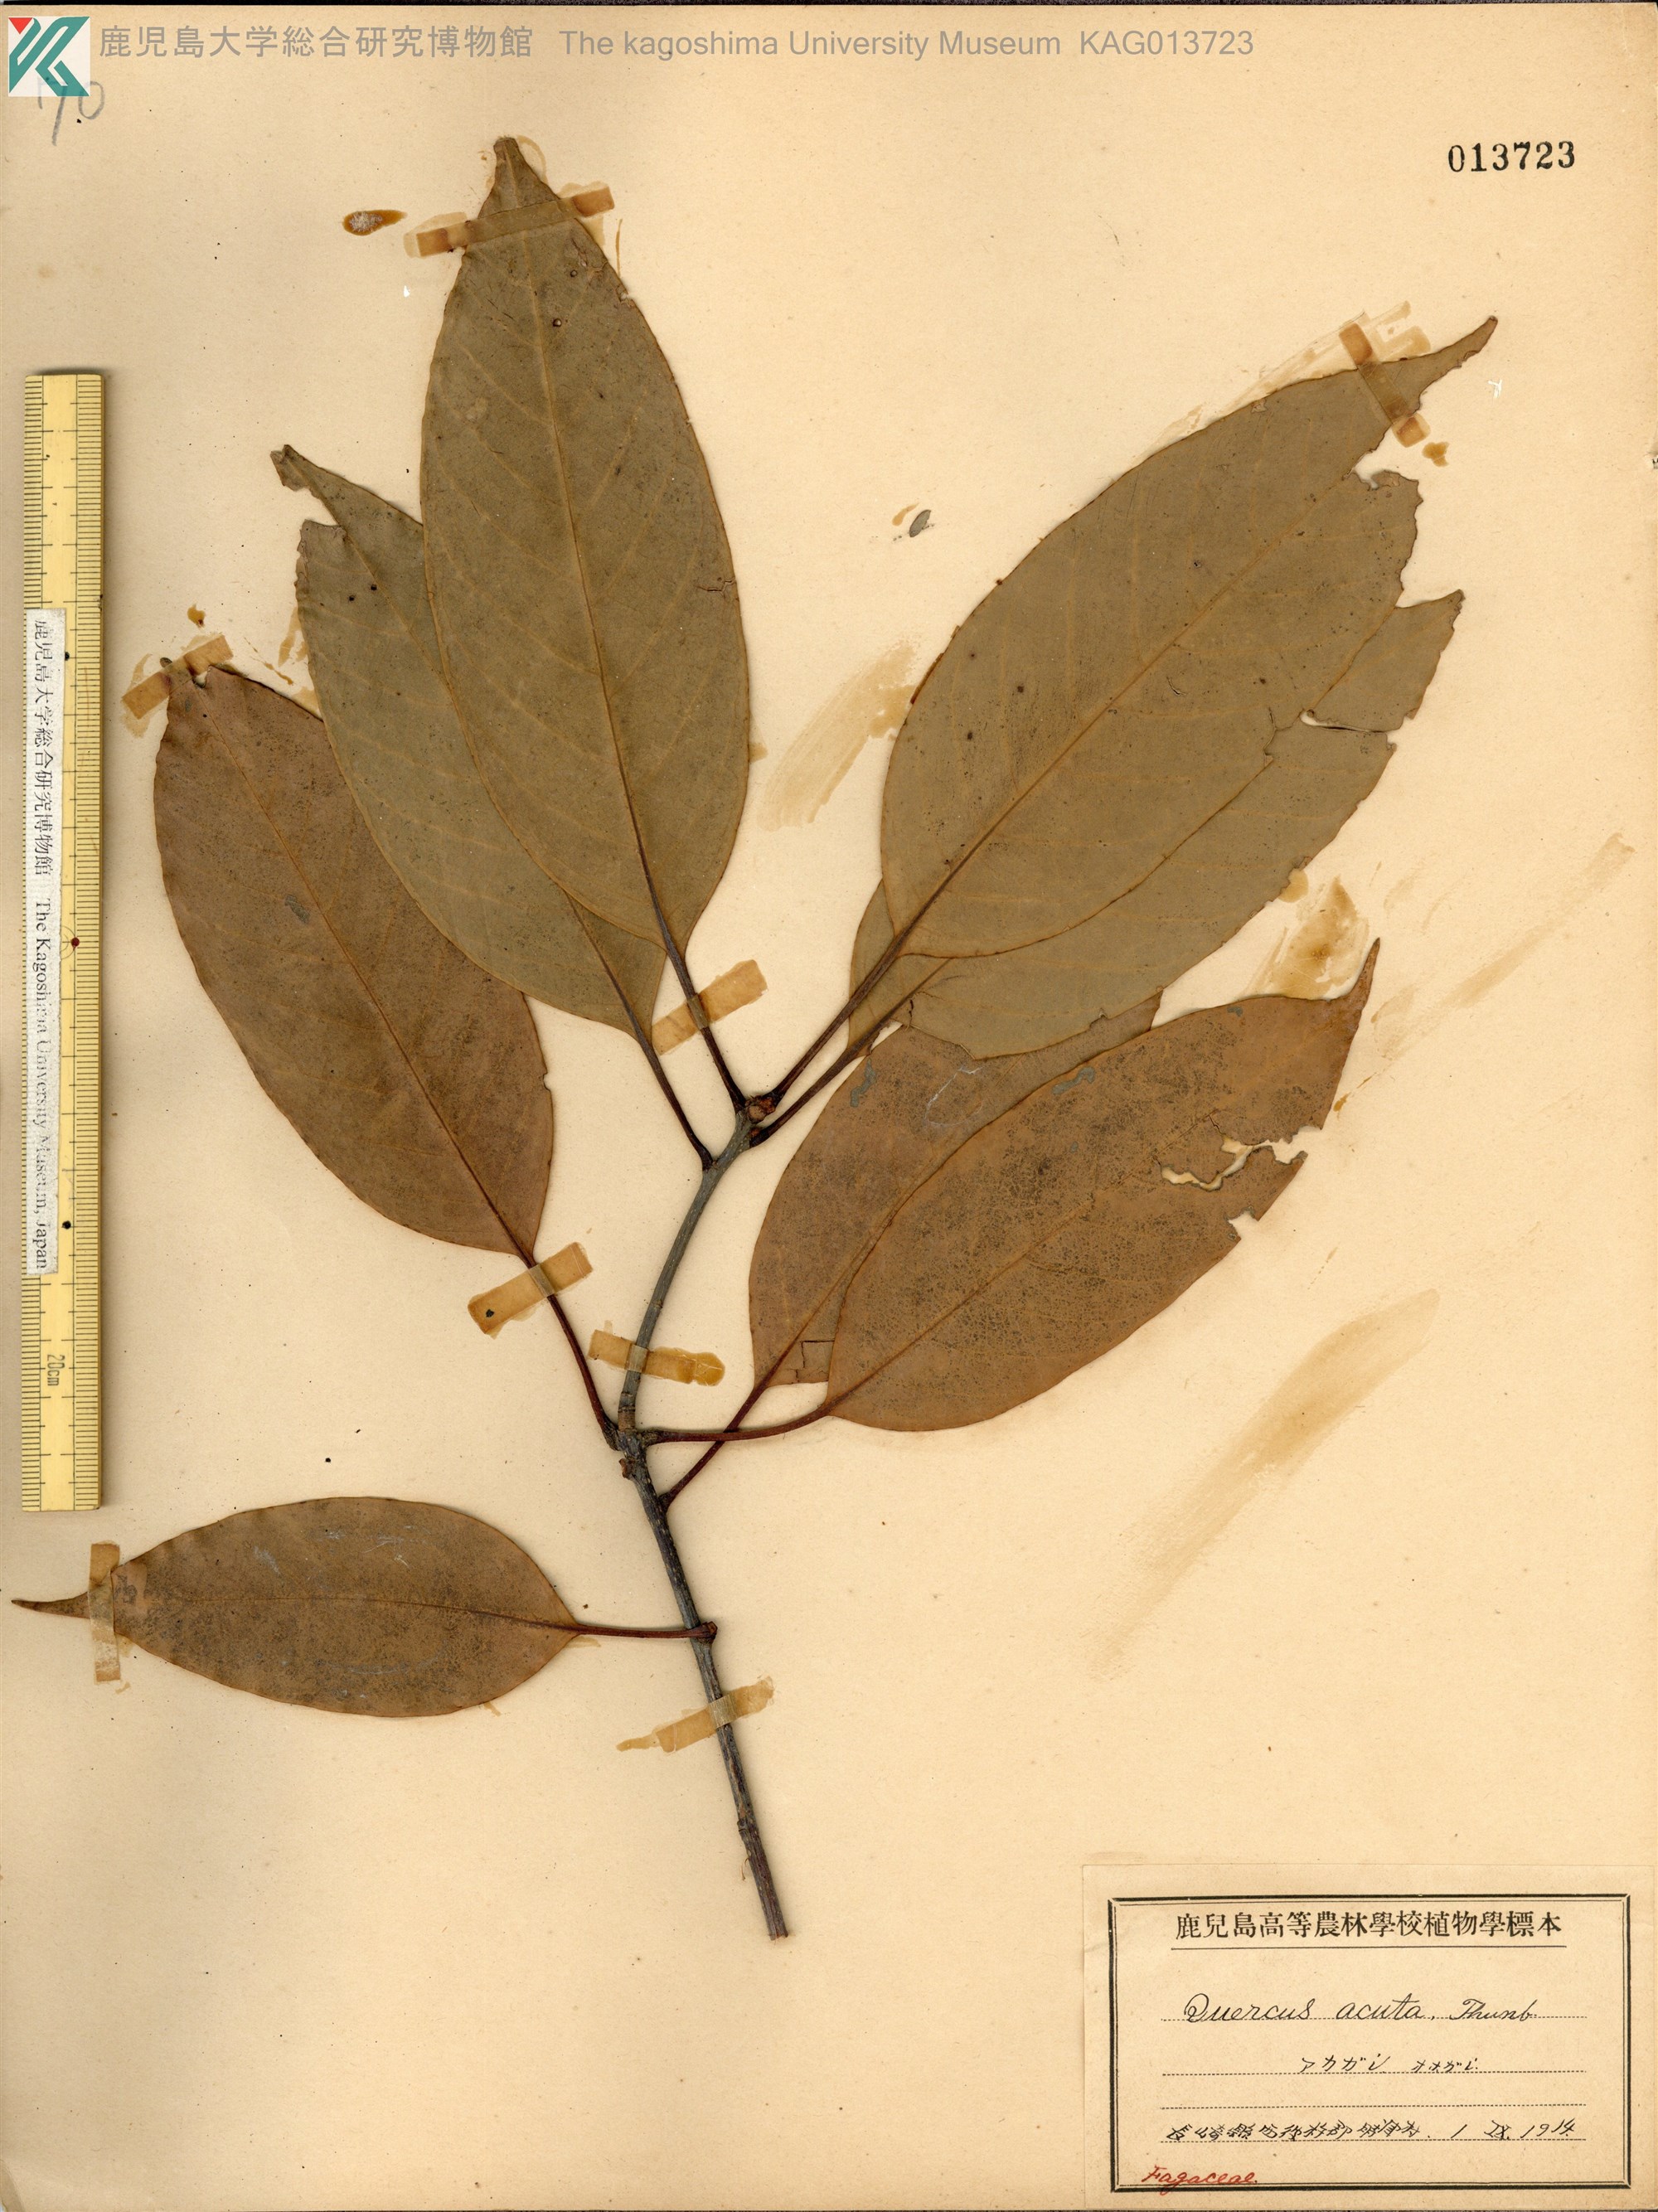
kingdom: Plantae
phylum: Tracheophyta
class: Magnoliopsida
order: Fagales
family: Fagaceae
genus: Quercus
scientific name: Quercus acuta
